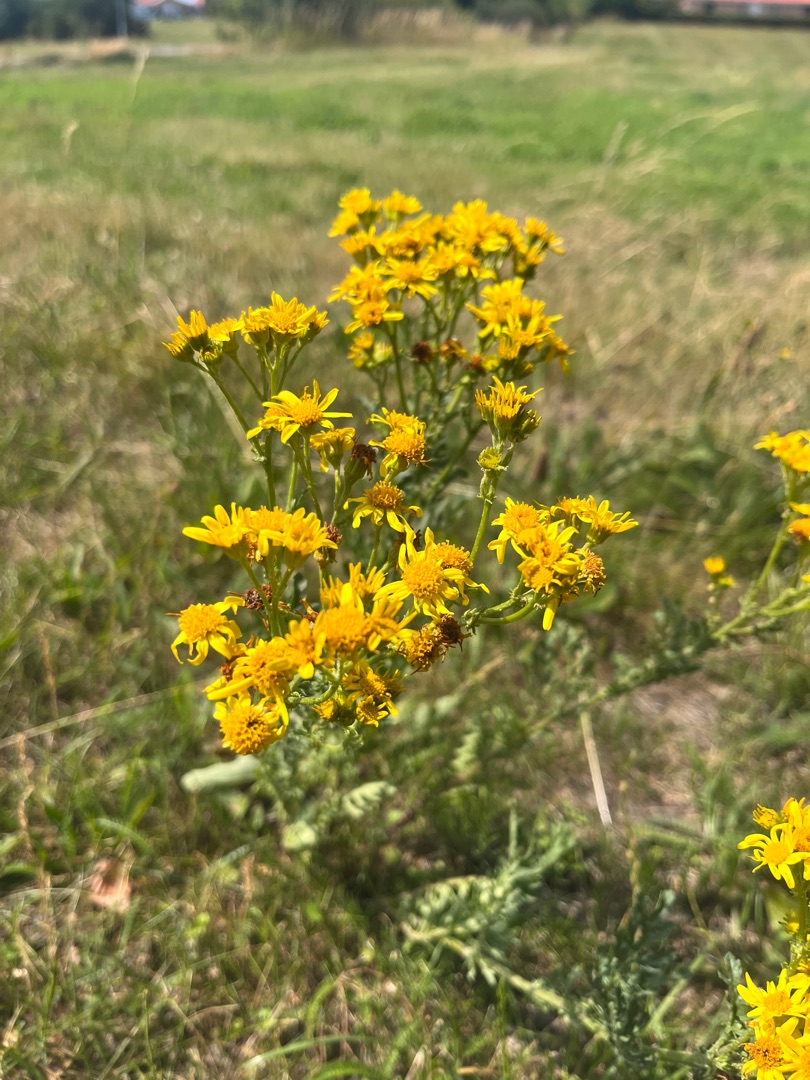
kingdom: Plantae
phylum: Tracheophyta
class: Magnoliopsida
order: Asterales
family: Asteraceae
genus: Jacobaea
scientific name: Jacobaea vulgaris
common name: Eng-brandbæger
